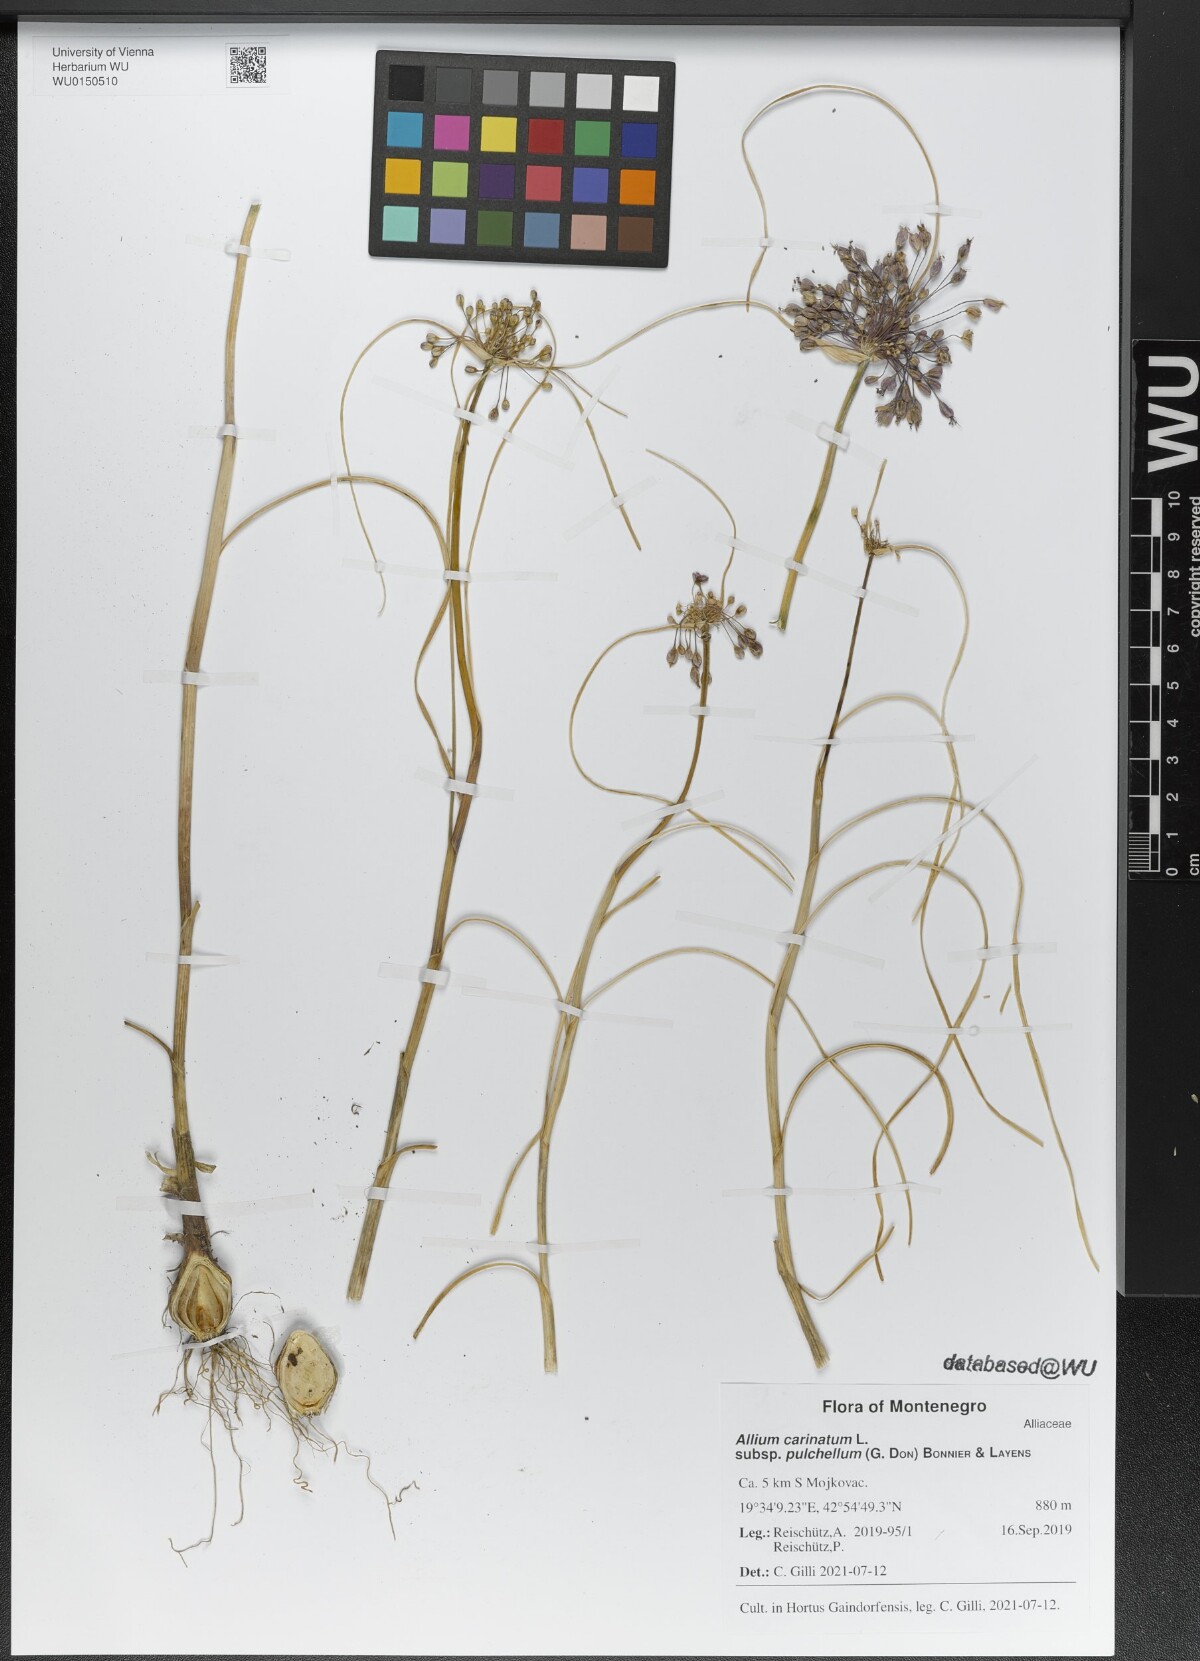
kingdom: Plantae
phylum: Tracheophyta
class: Liliopsida
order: Asparagales
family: Amaryllidaceae
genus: Allium
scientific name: Allium coloratum
